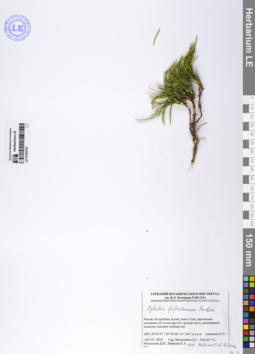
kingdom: Plantae
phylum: Tracheophyta
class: Gnetopsida
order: Ephedrales
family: Ephedraceae
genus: Ephedra
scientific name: Ephedra fedtschenkoae
